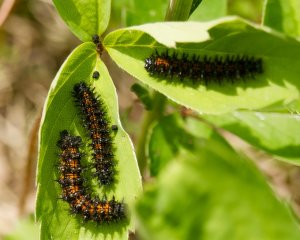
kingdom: Animalia
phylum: Arthropoda
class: Insecta
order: Lepidoptera
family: Nymphalidae
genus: Chlosyne
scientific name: Chlosyne harrisii
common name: Harris's Checkerspot
